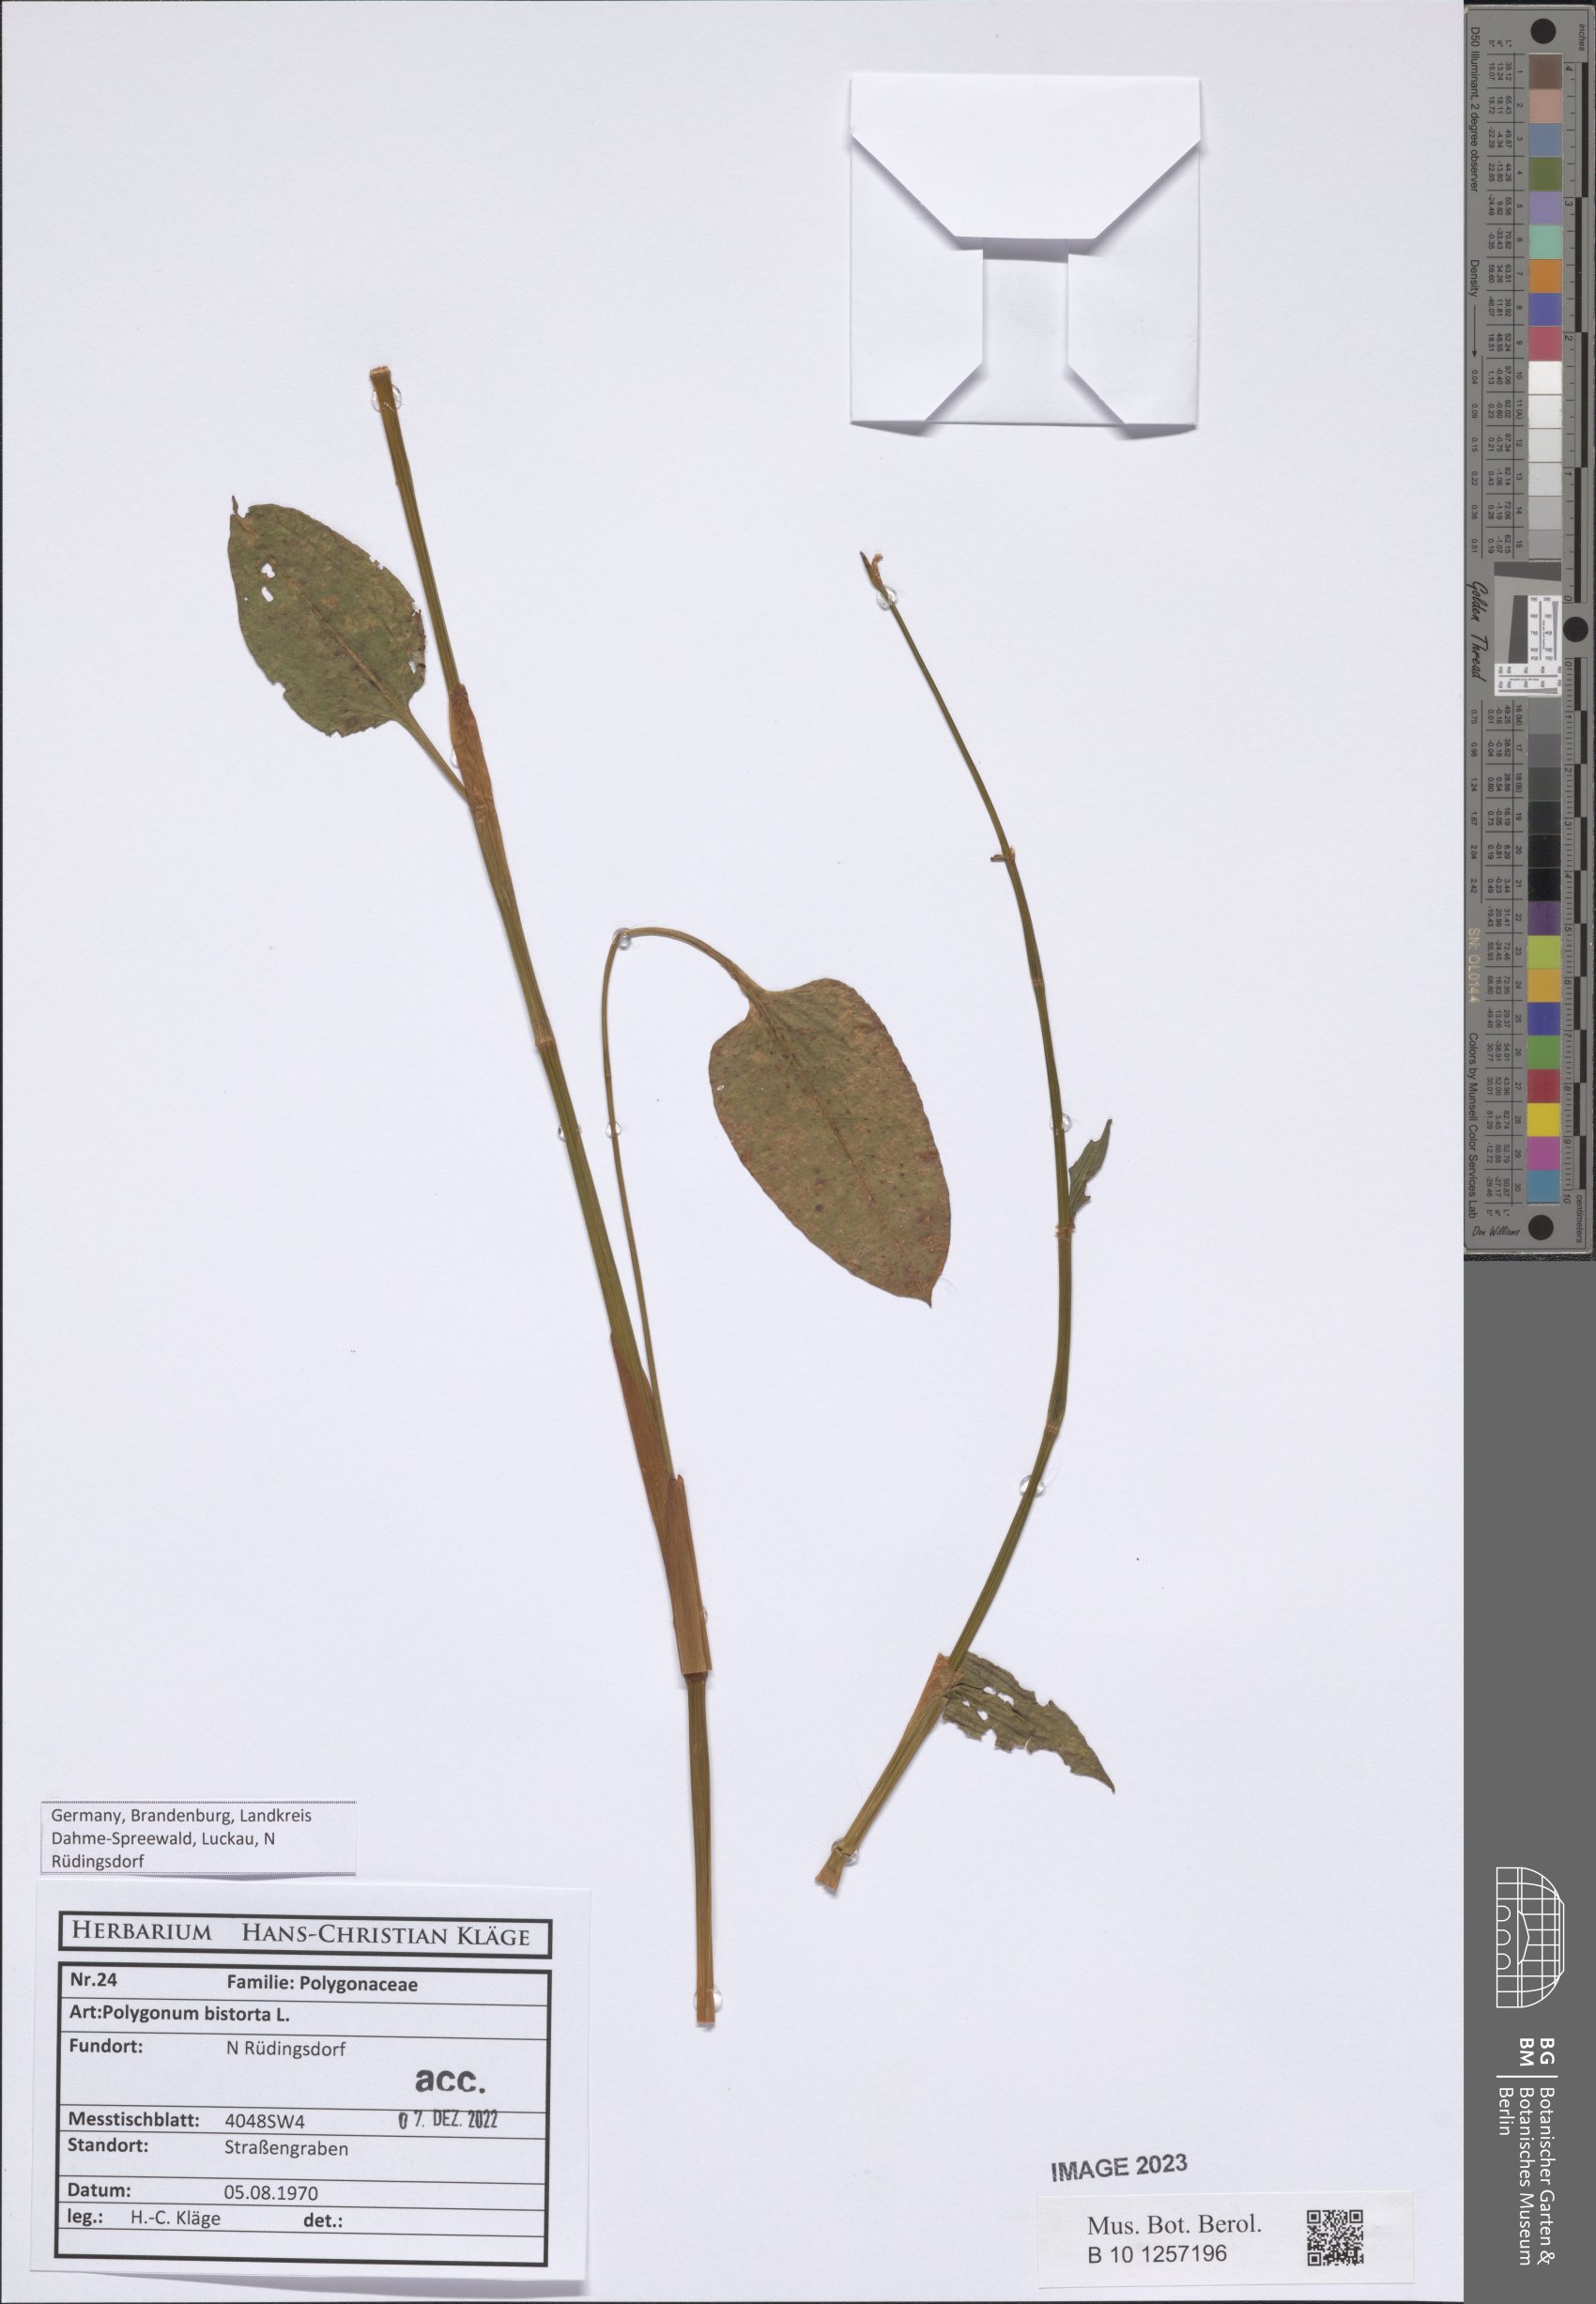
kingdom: Plantae
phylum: Tracheophyta
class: Magnoliopsida
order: Caryophyllales
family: Polygonaceae
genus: Bistorta
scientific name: Bistorta officinalis
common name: Common bistort
